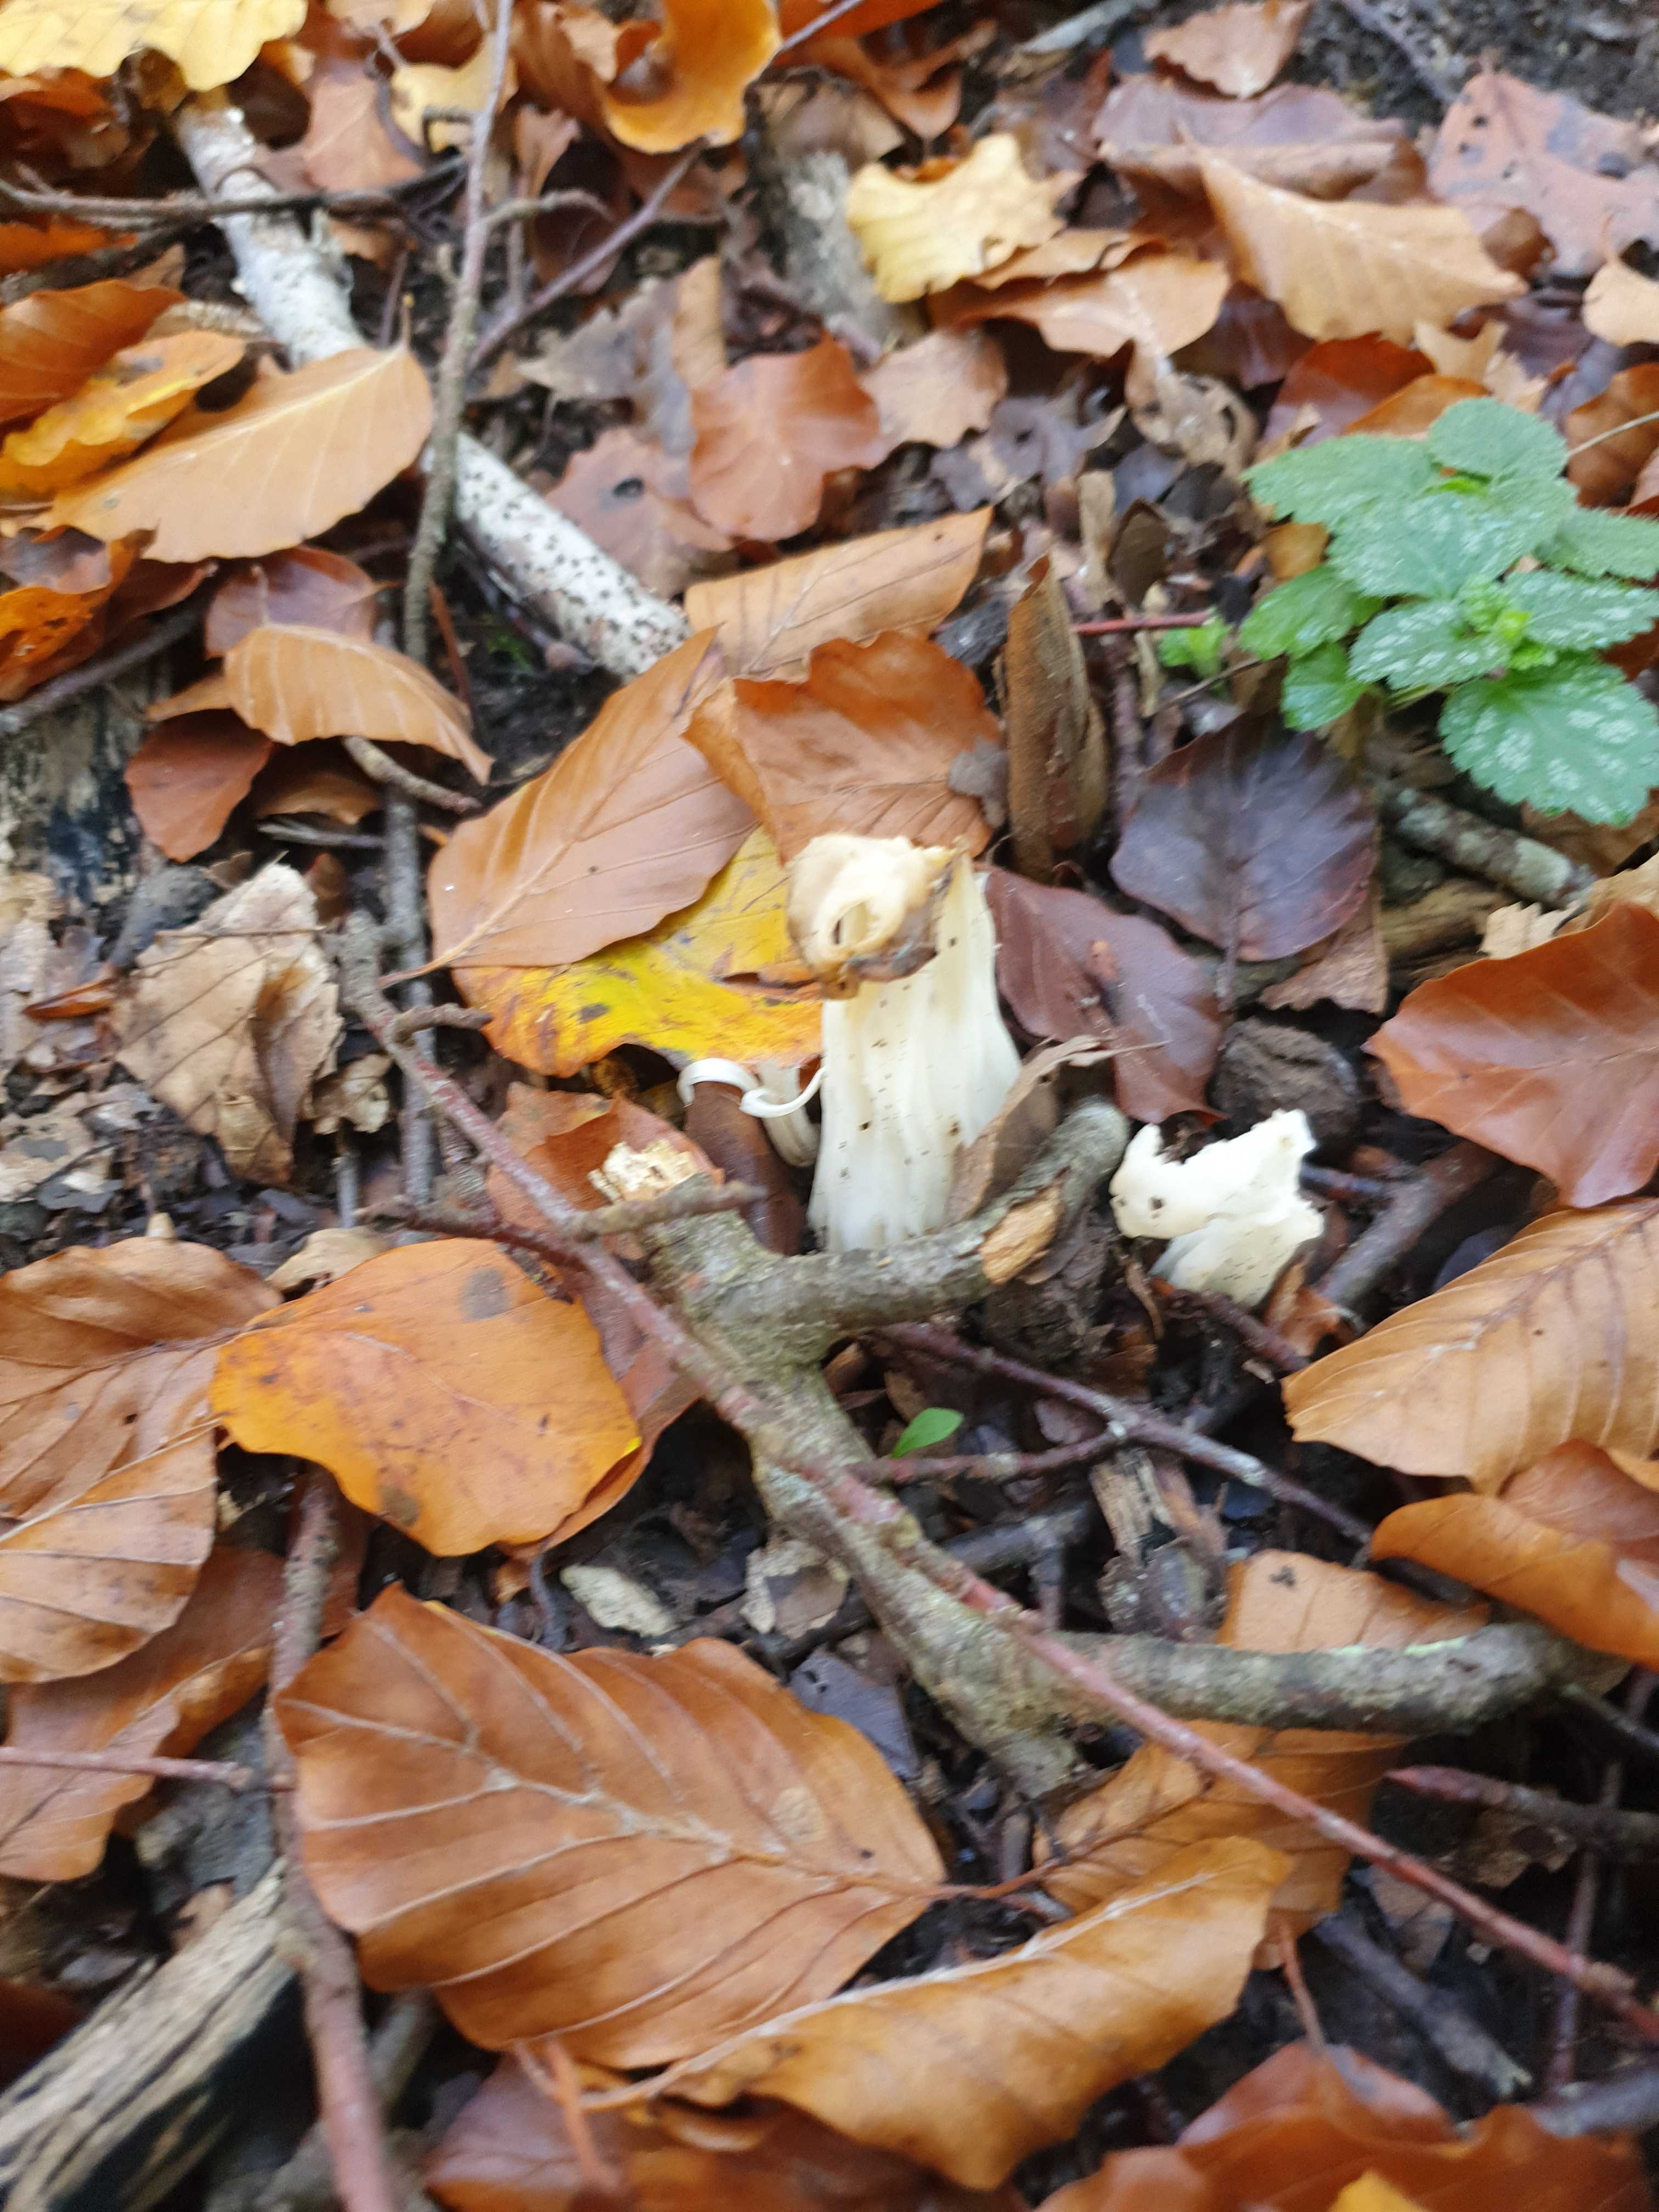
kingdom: Fungi
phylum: Ascomycota
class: Pezizomycetes
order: Pezizales
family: Helvellaceae
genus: Helvella
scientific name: Helvella crispa
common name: kruset foldhat
